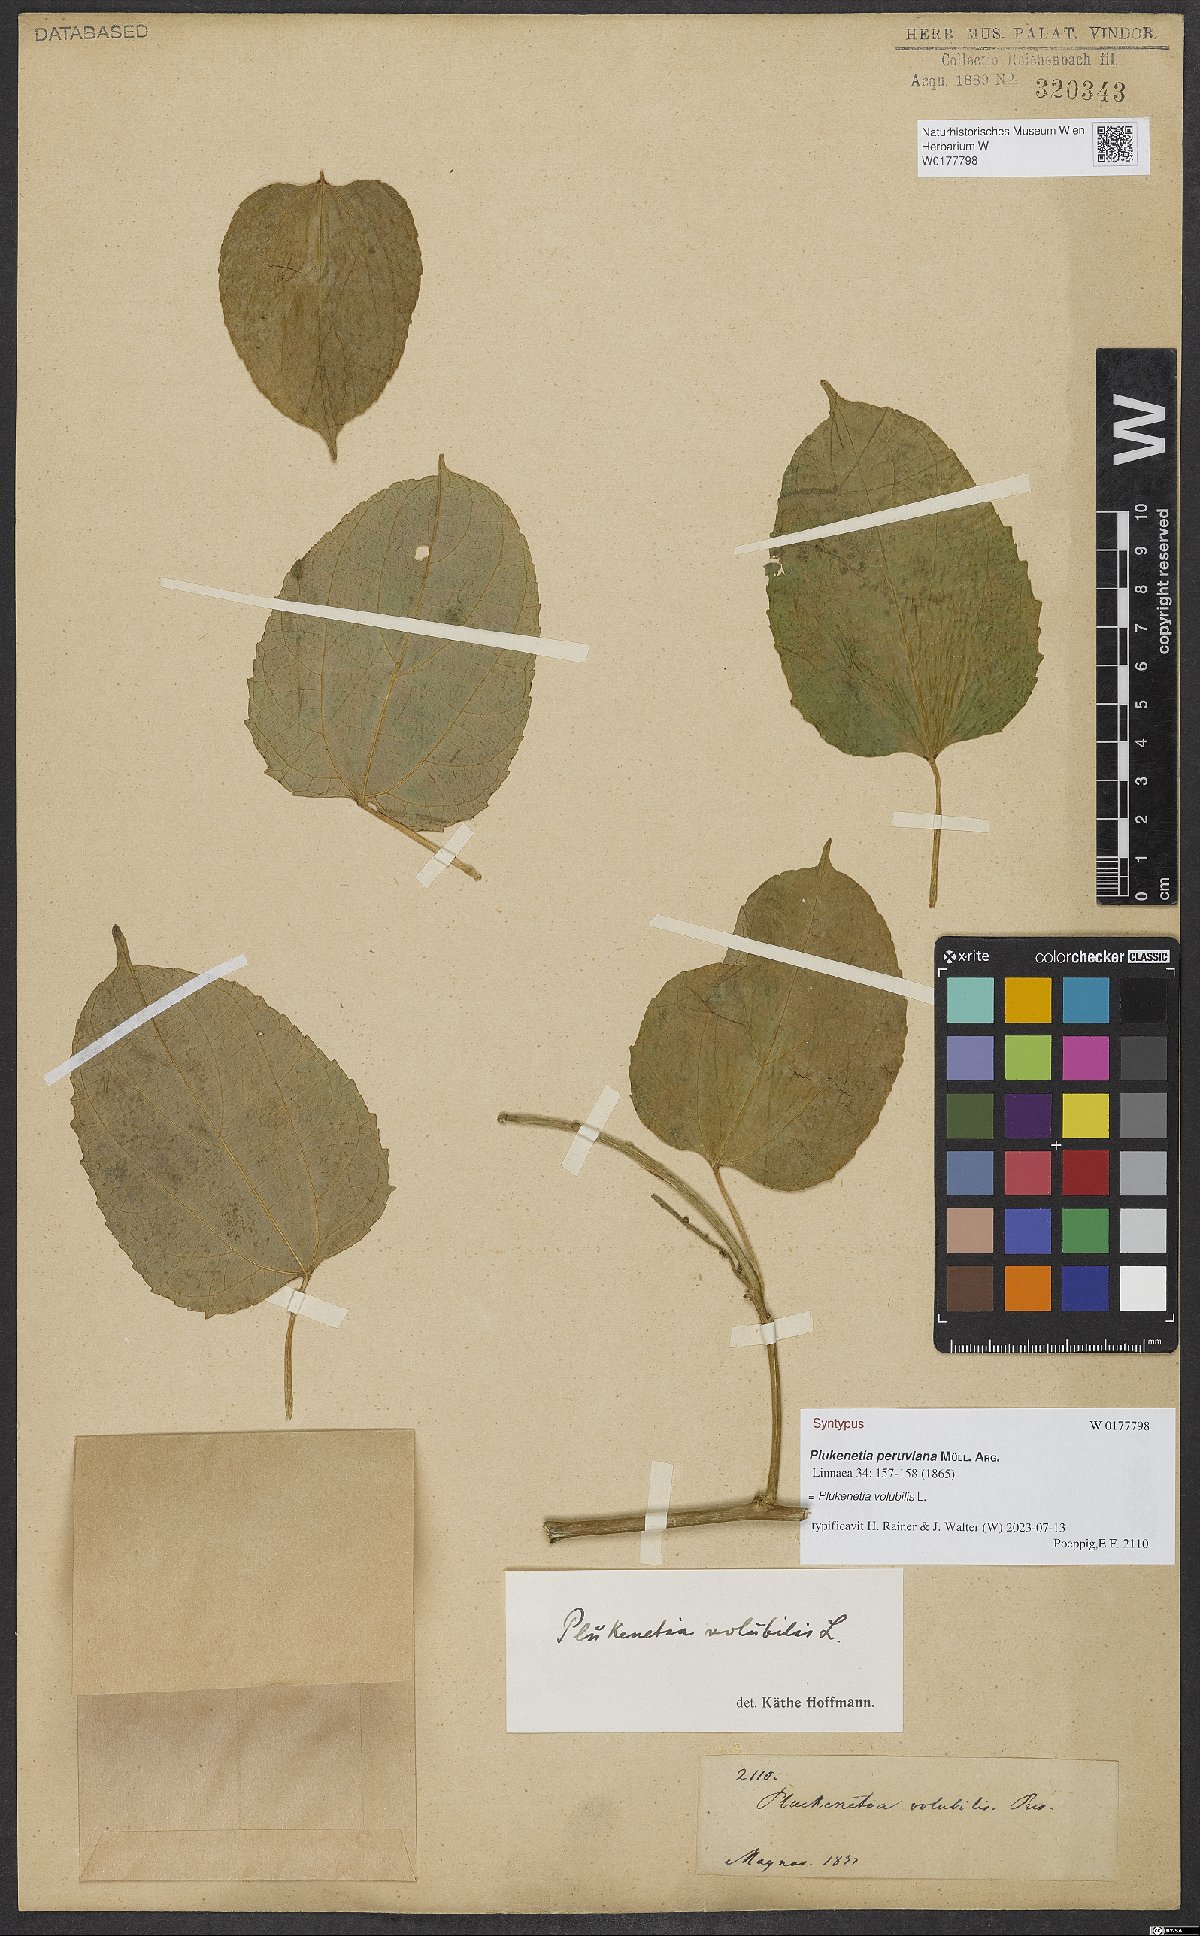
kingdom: Plantae
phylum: Tracheophyta
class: Magnoliopsida
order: Malpighiales
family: Euphorbiaceae
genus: Plukenetia
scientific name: Plukenetia volubilis
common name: Inca-peanut
